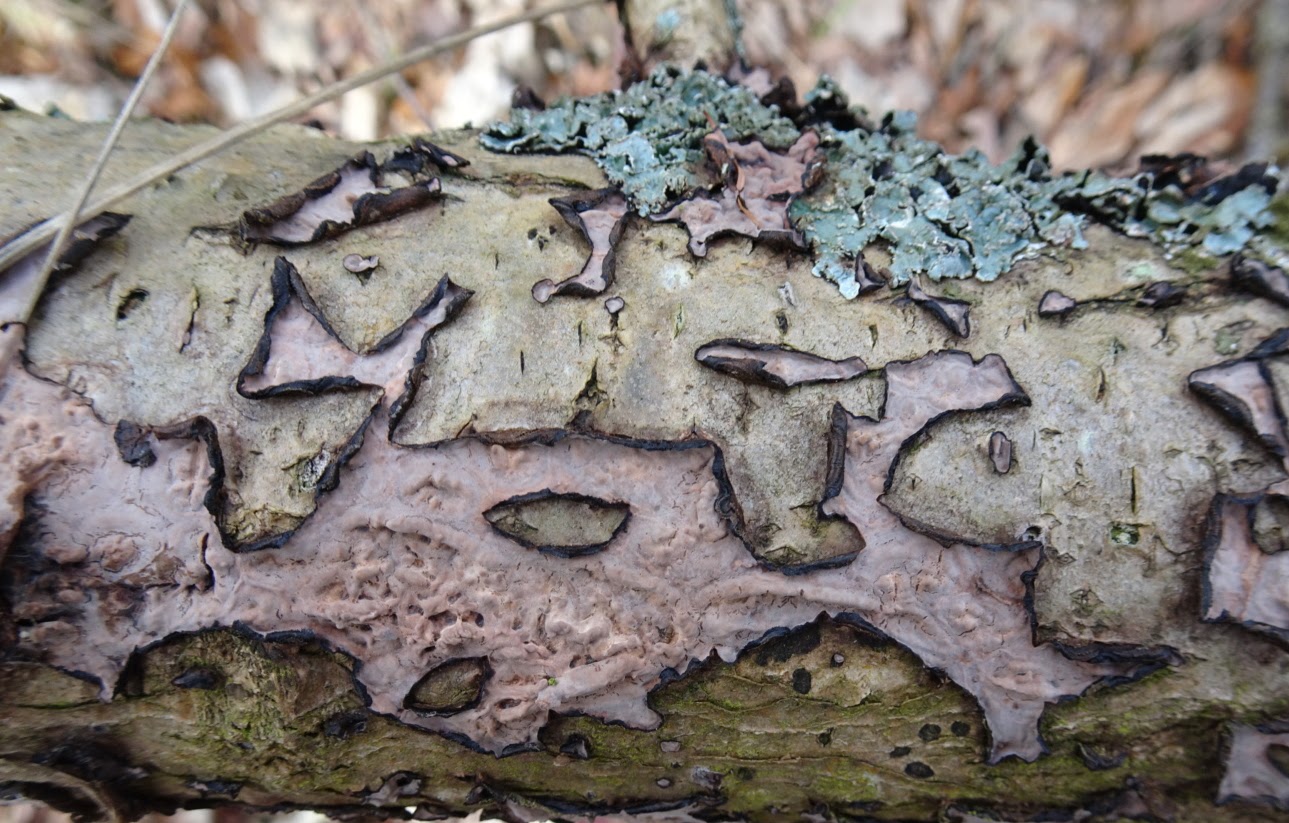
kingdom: Fungi
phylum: Basidiomycota
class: Agaricomycetes
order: Russulales
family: Peniophoraceae
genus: Peniophora
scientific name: Peniophora quercina
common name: ege-voksskind
